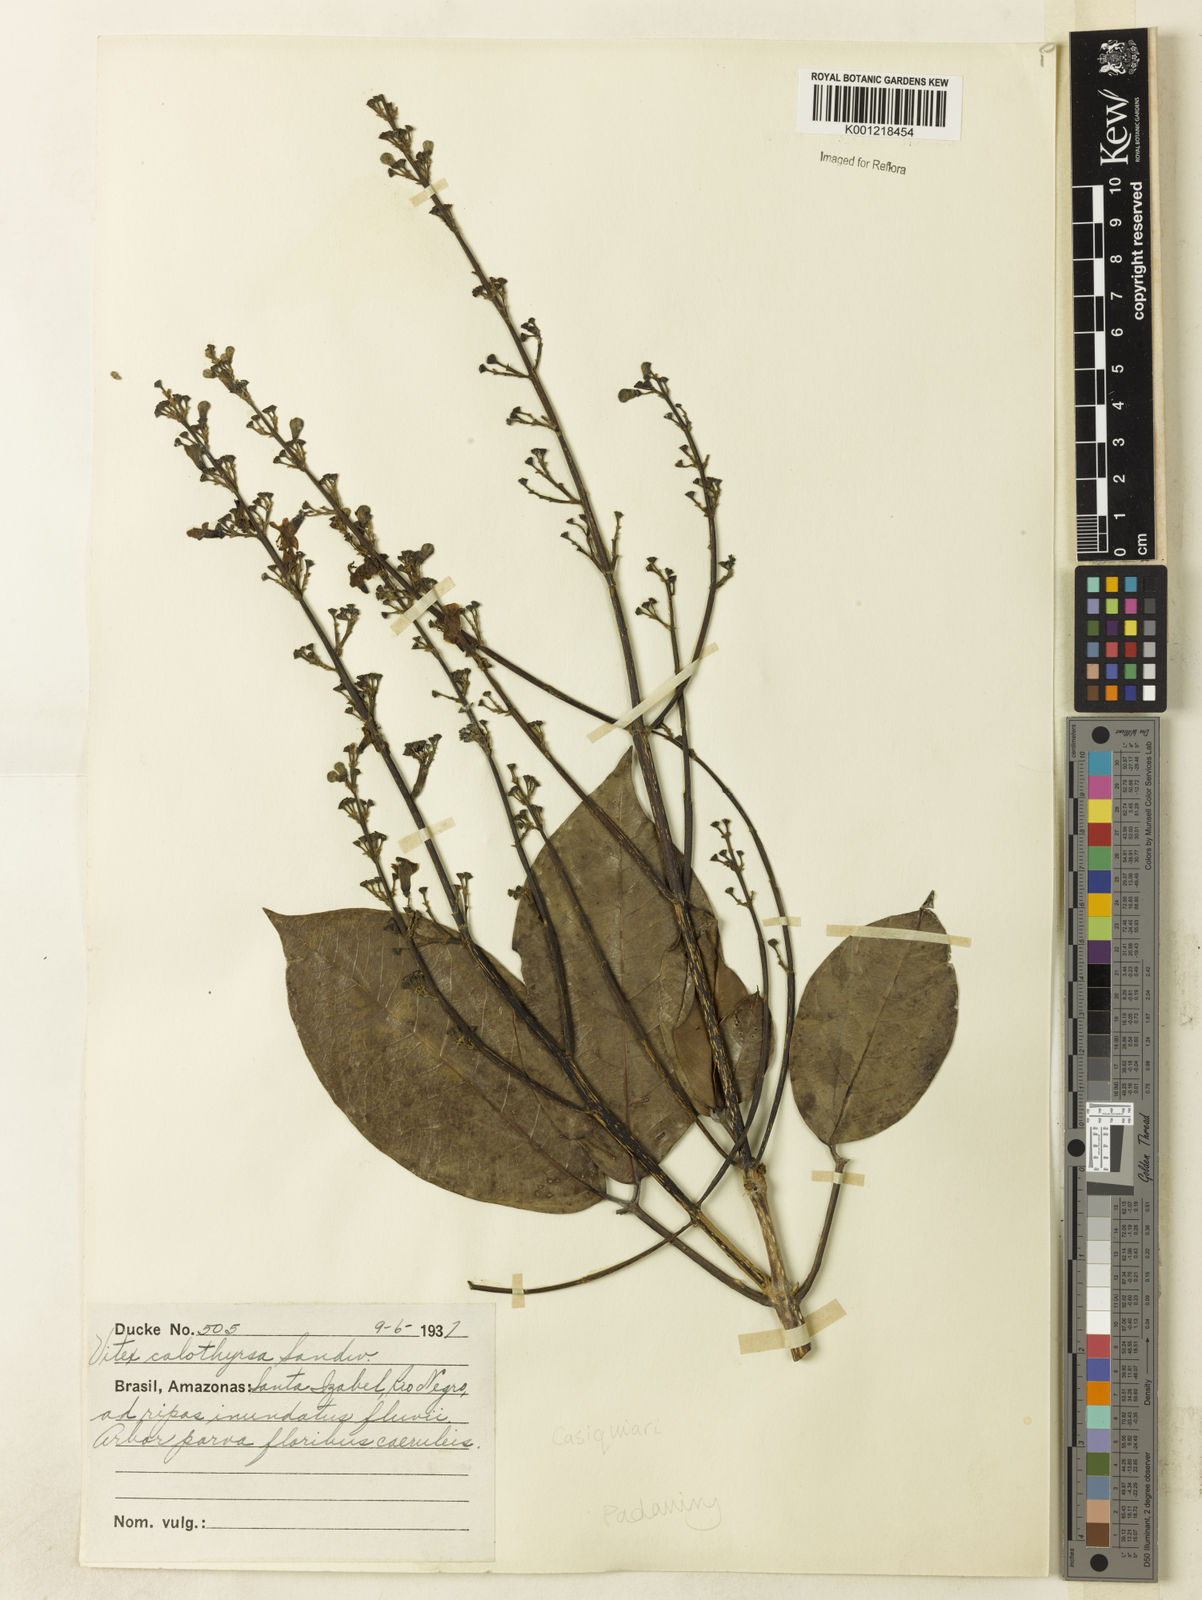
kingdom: Plantae
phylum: Tracheophyta
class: Magnoliopsida
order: Lamiales
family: Lamiaceae
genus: Vitex
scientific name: Vitex calothyrsa
